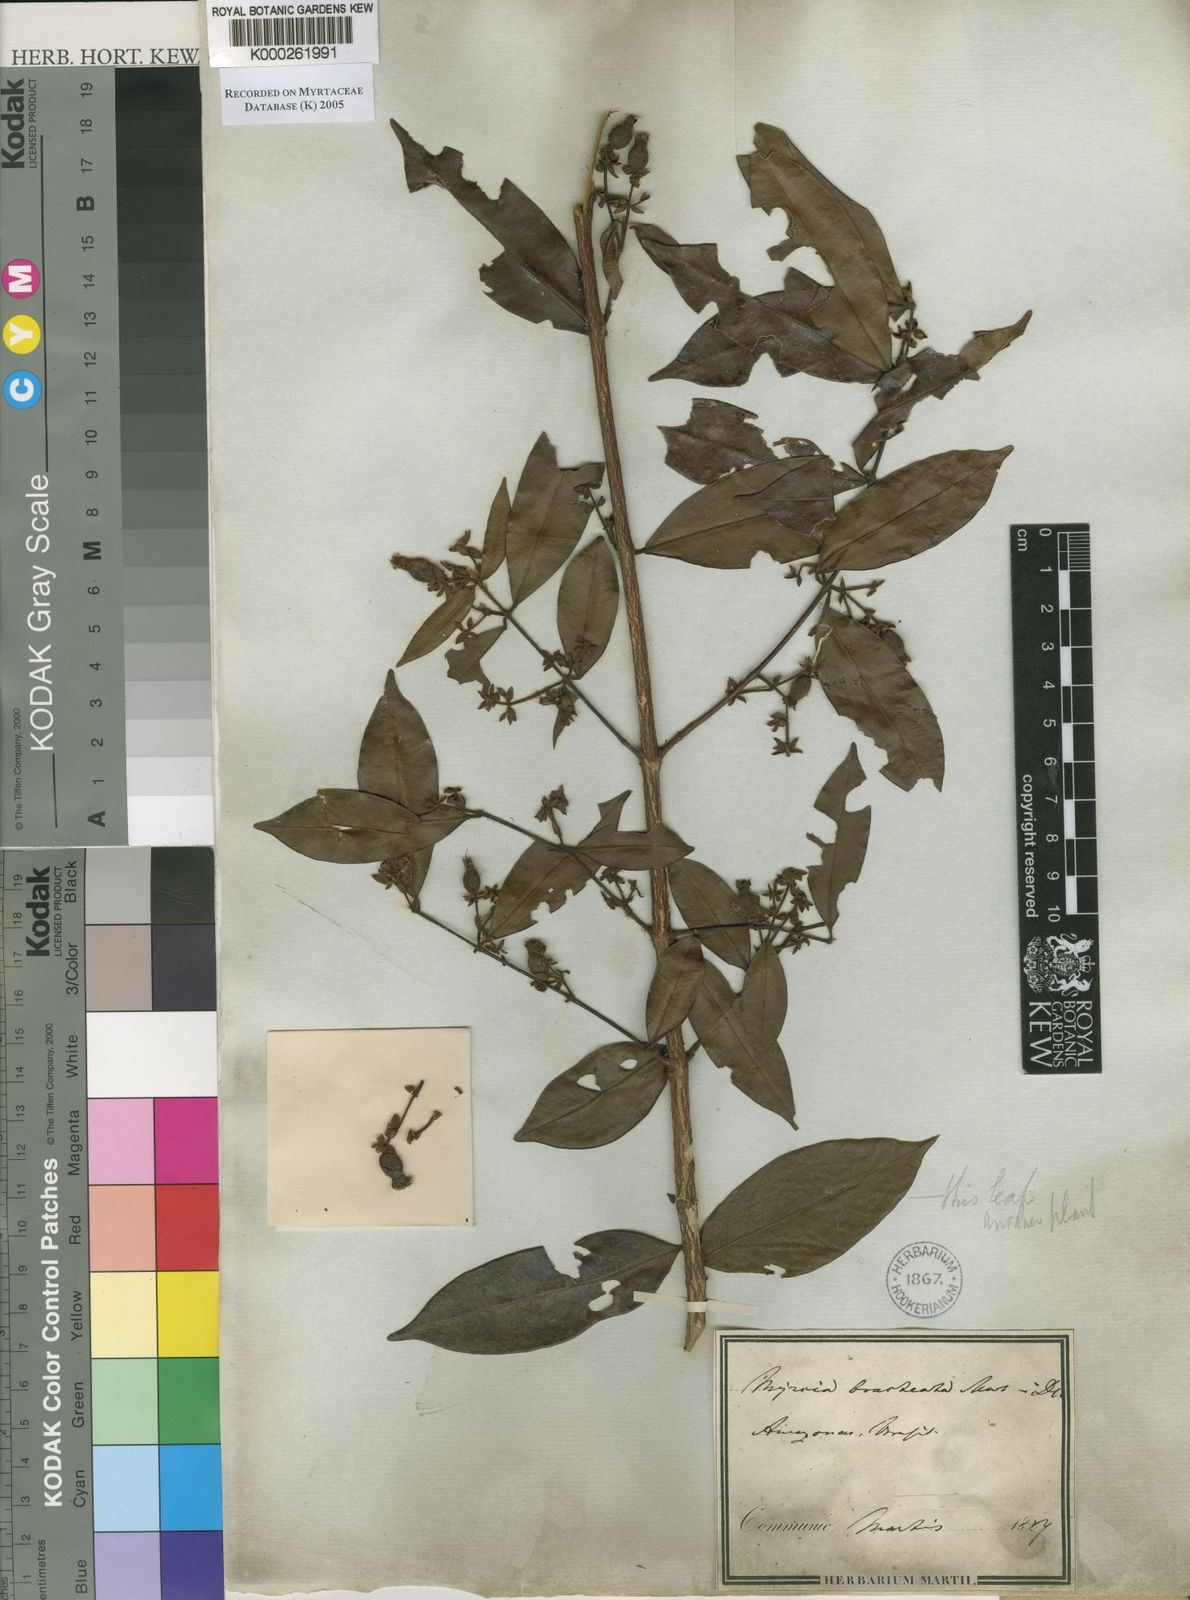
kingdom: Plantae
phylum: Tracheophyta
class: Magnoliopsida
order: Myrtales
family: Myrtaceae
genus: Myrcia
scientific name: Myrcia bracteata
